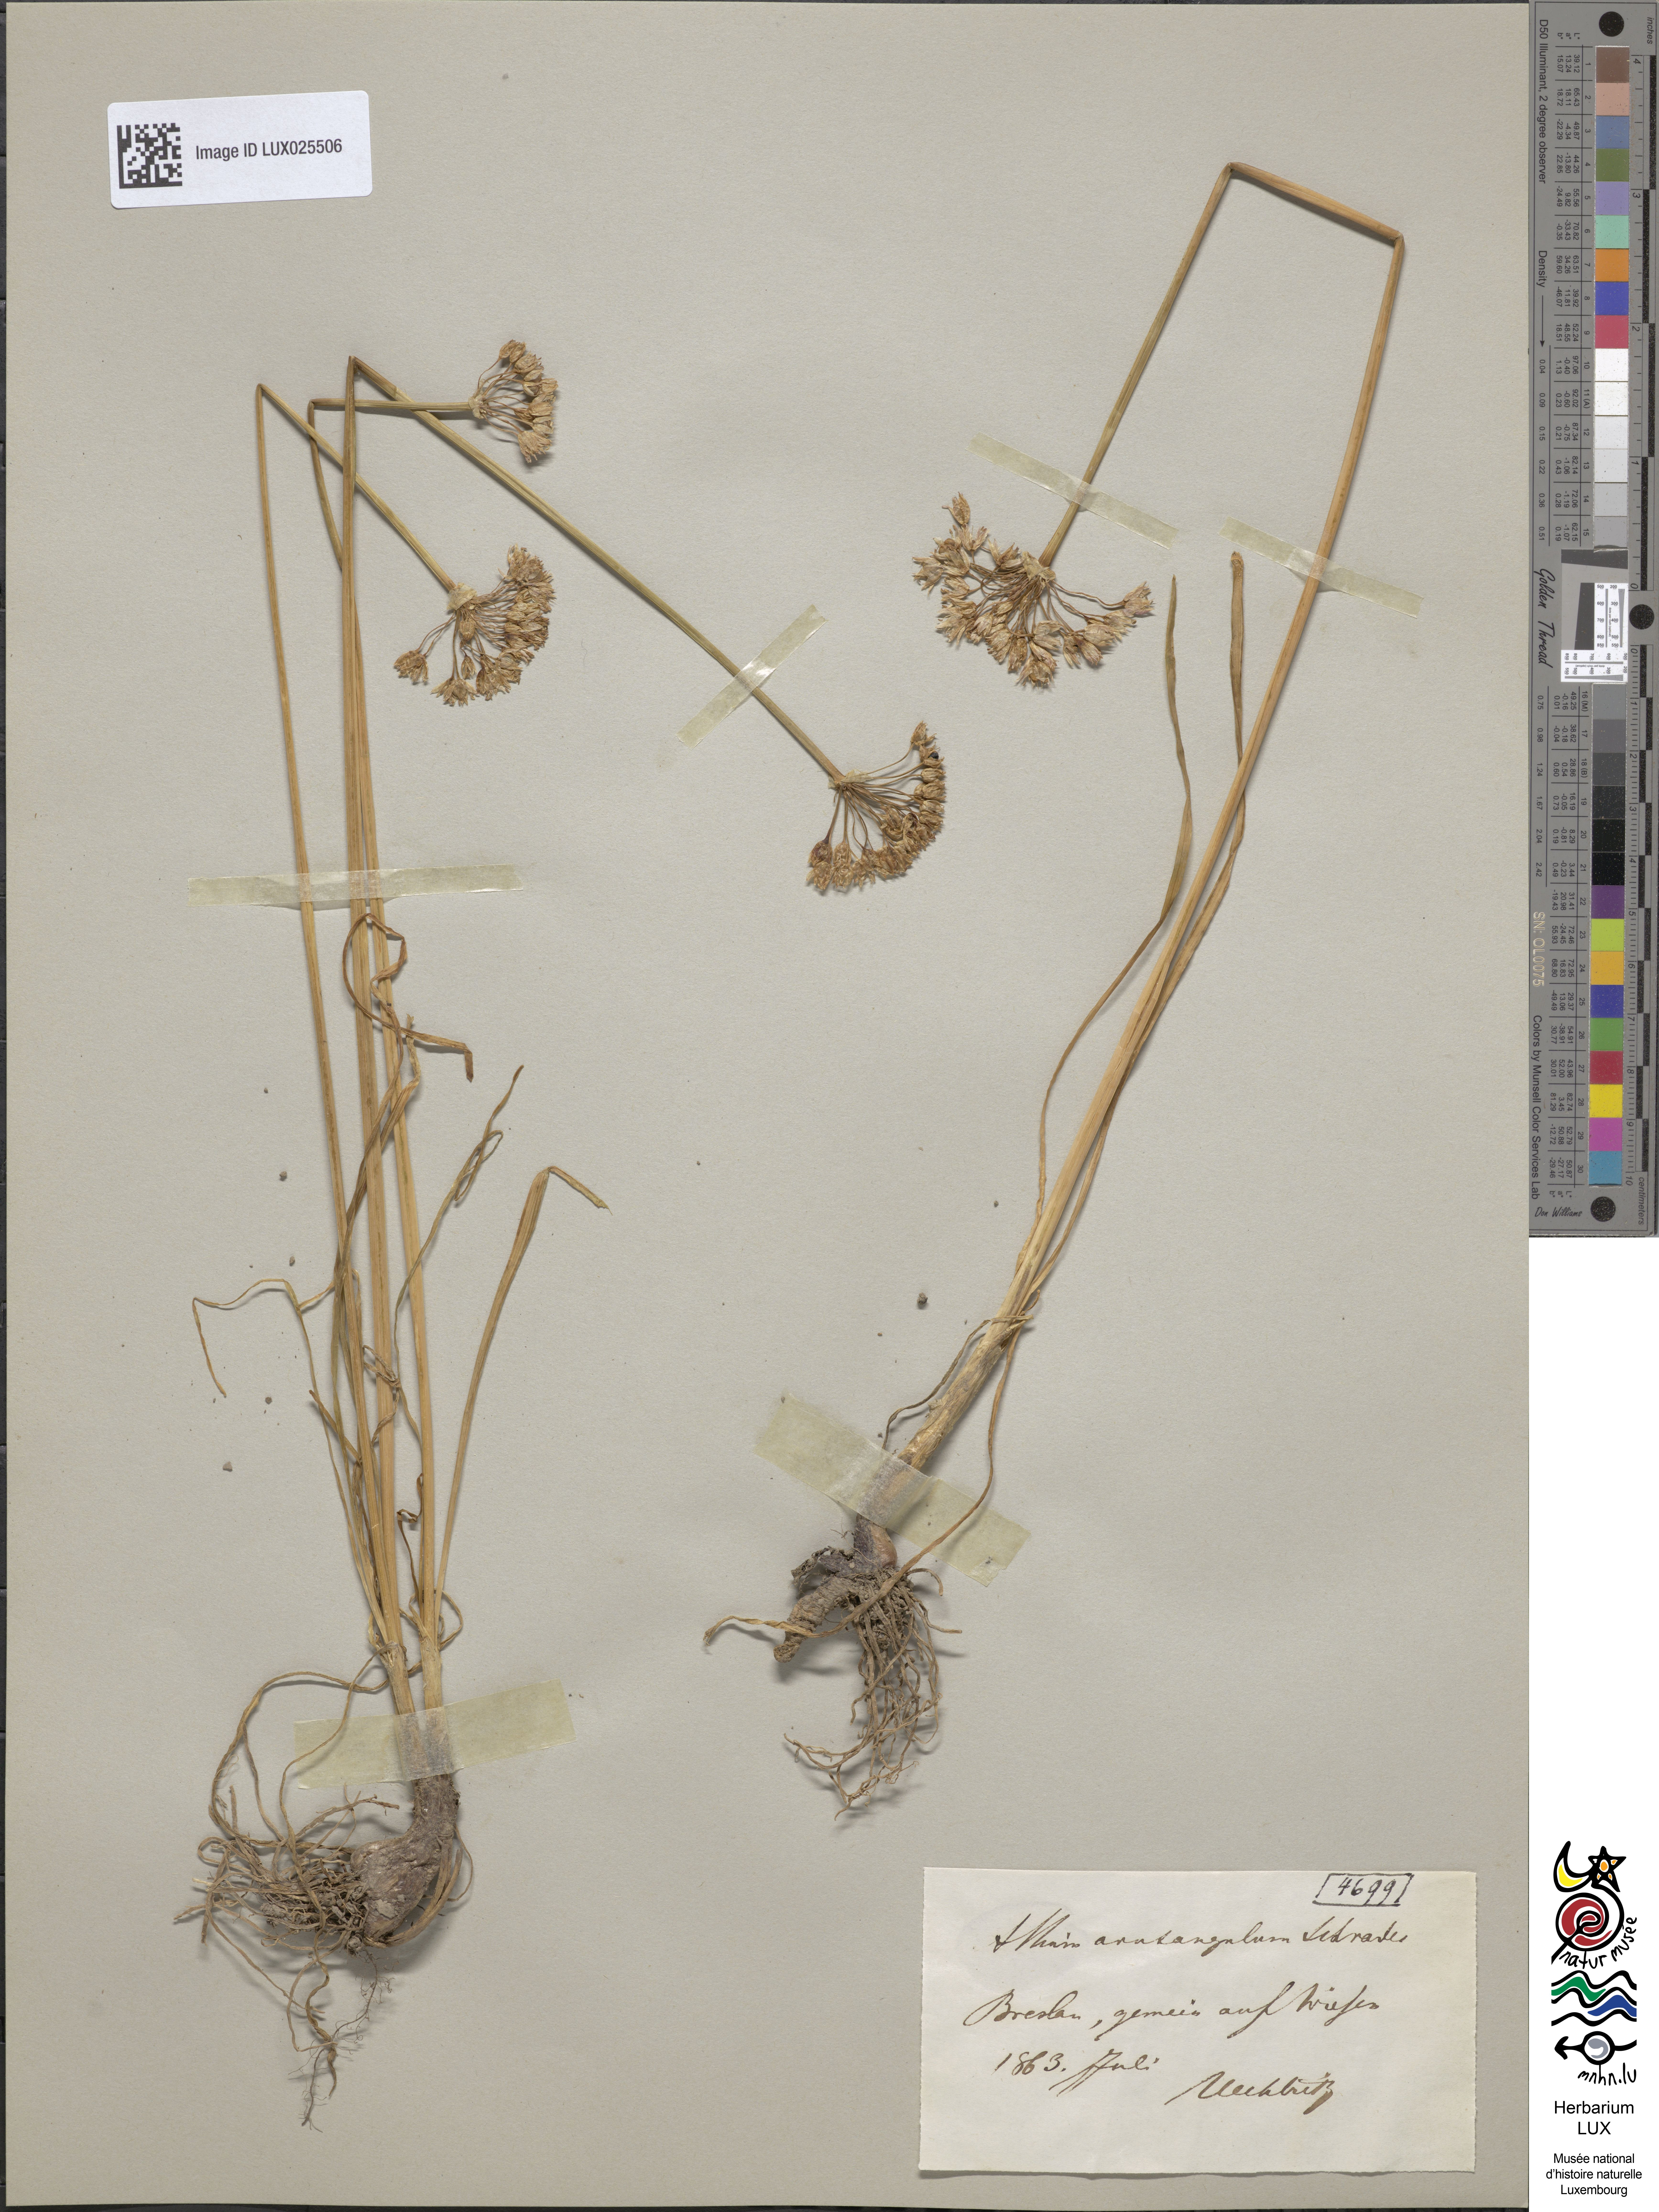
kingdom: Plantae
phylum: Tracheophyta
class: Liliopsida
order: Asparagales
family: Amaryllidaceae
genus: Allium
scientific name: Allium angulosum
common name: Mouse garlic
